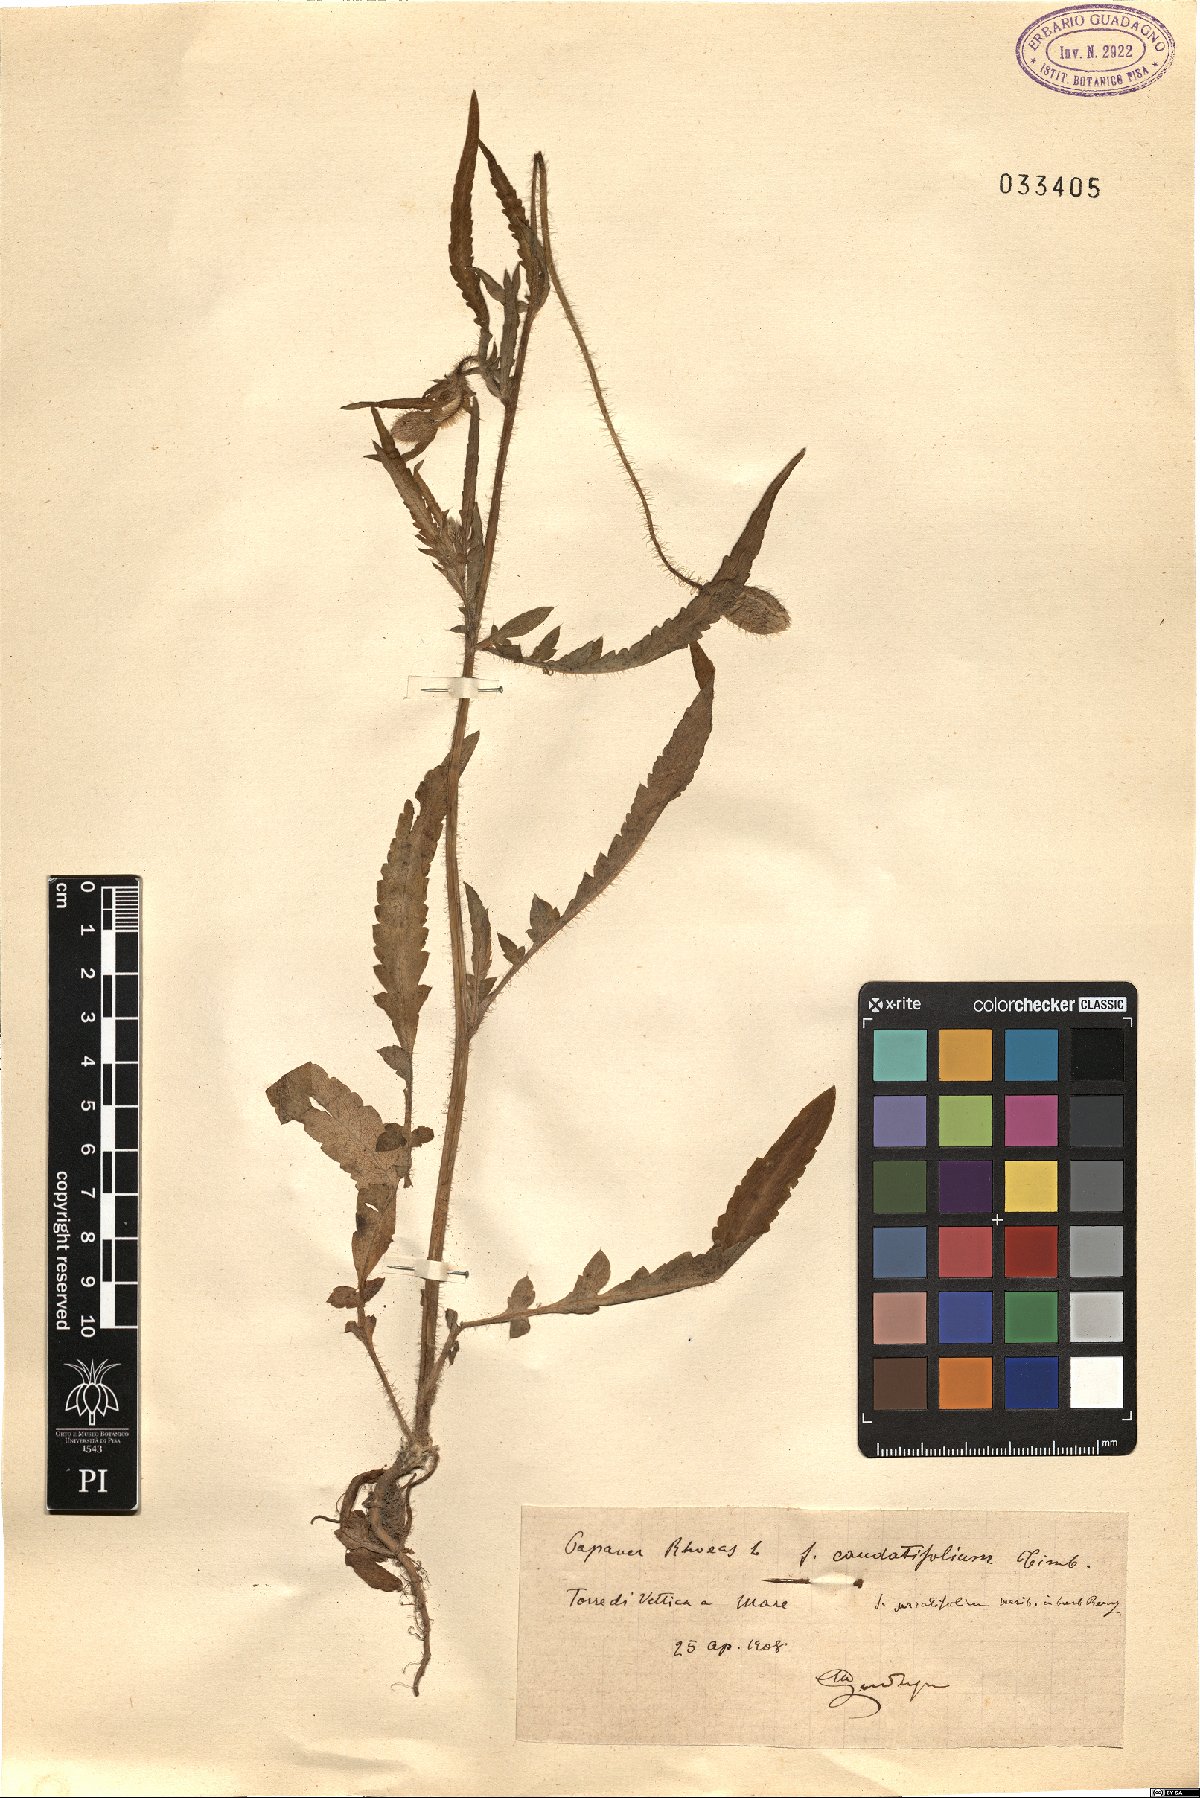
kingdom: Plantae
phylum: Tracheophyta
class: Magnoliopsida
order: Ranunculales
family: Papaveraceae
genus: Papaver
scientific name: Papaver rhoeas
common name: Corn poppy
